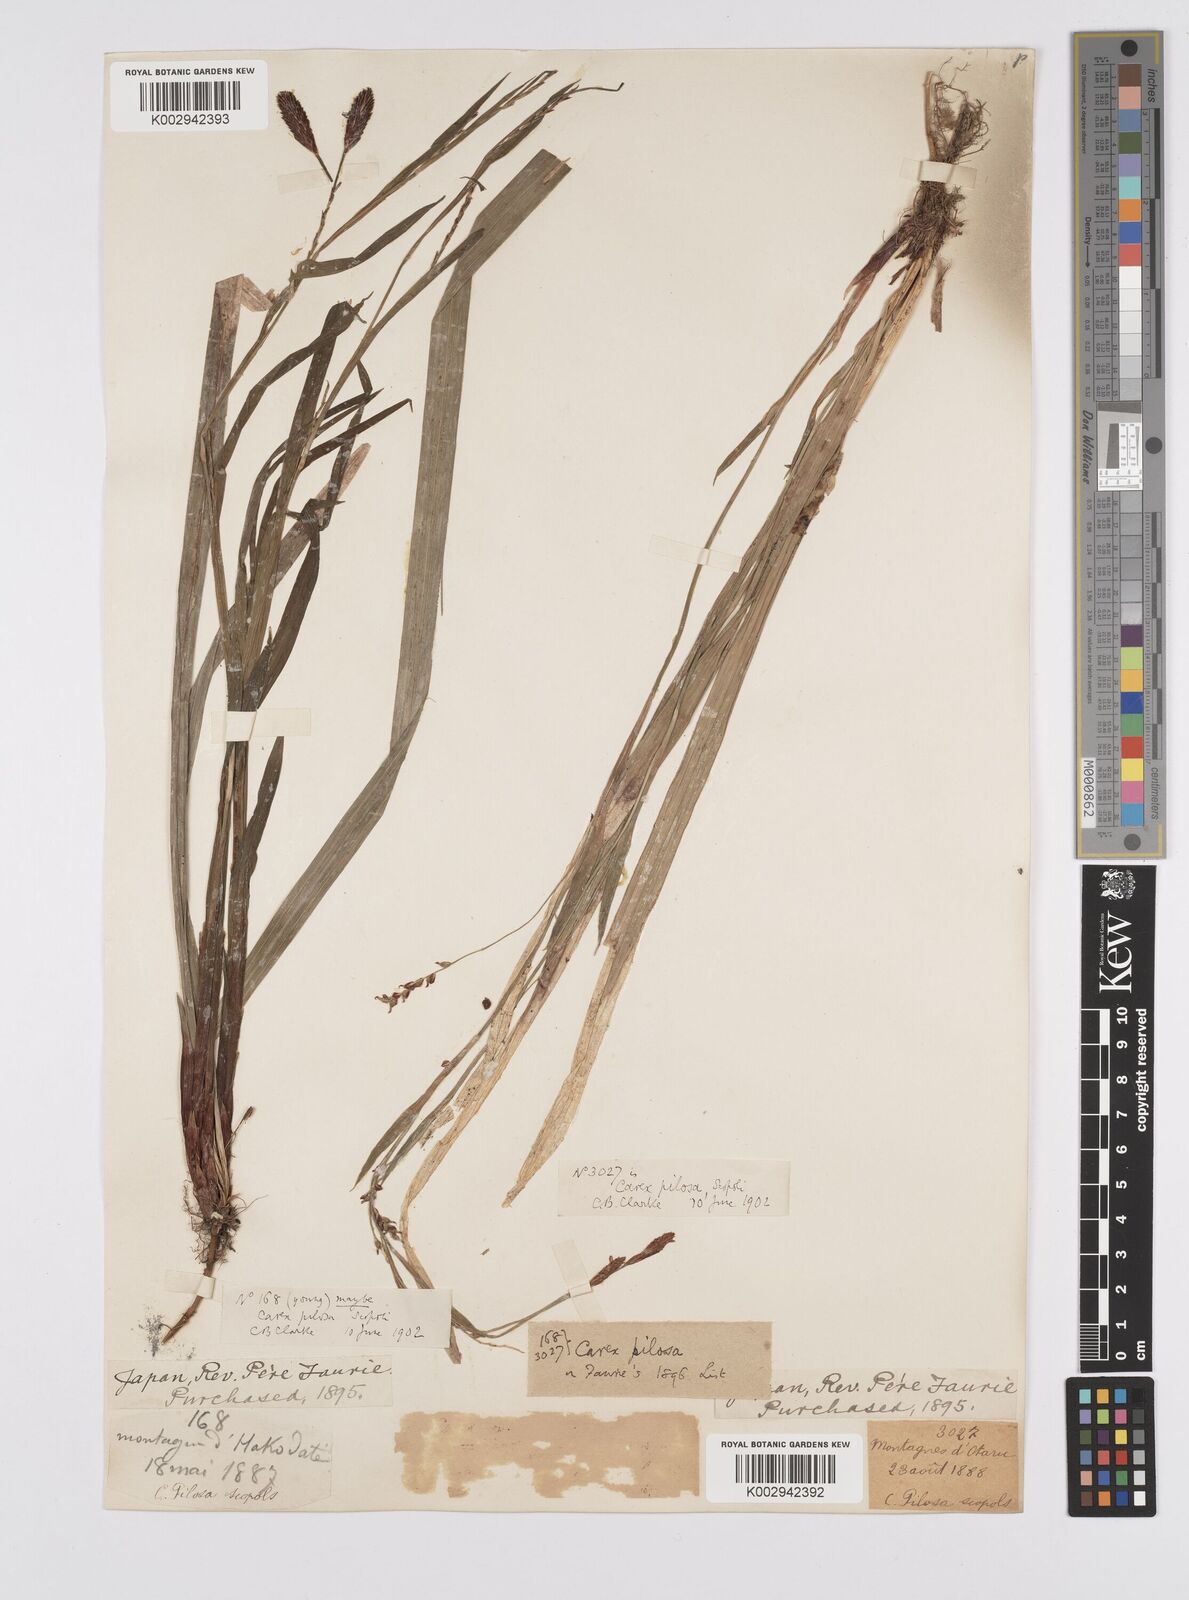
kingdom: Plantae
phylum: Tracheophyta
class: Liliopsida
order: Poales
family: Cyperaceae
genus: Carex
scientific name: Carex pilosa
